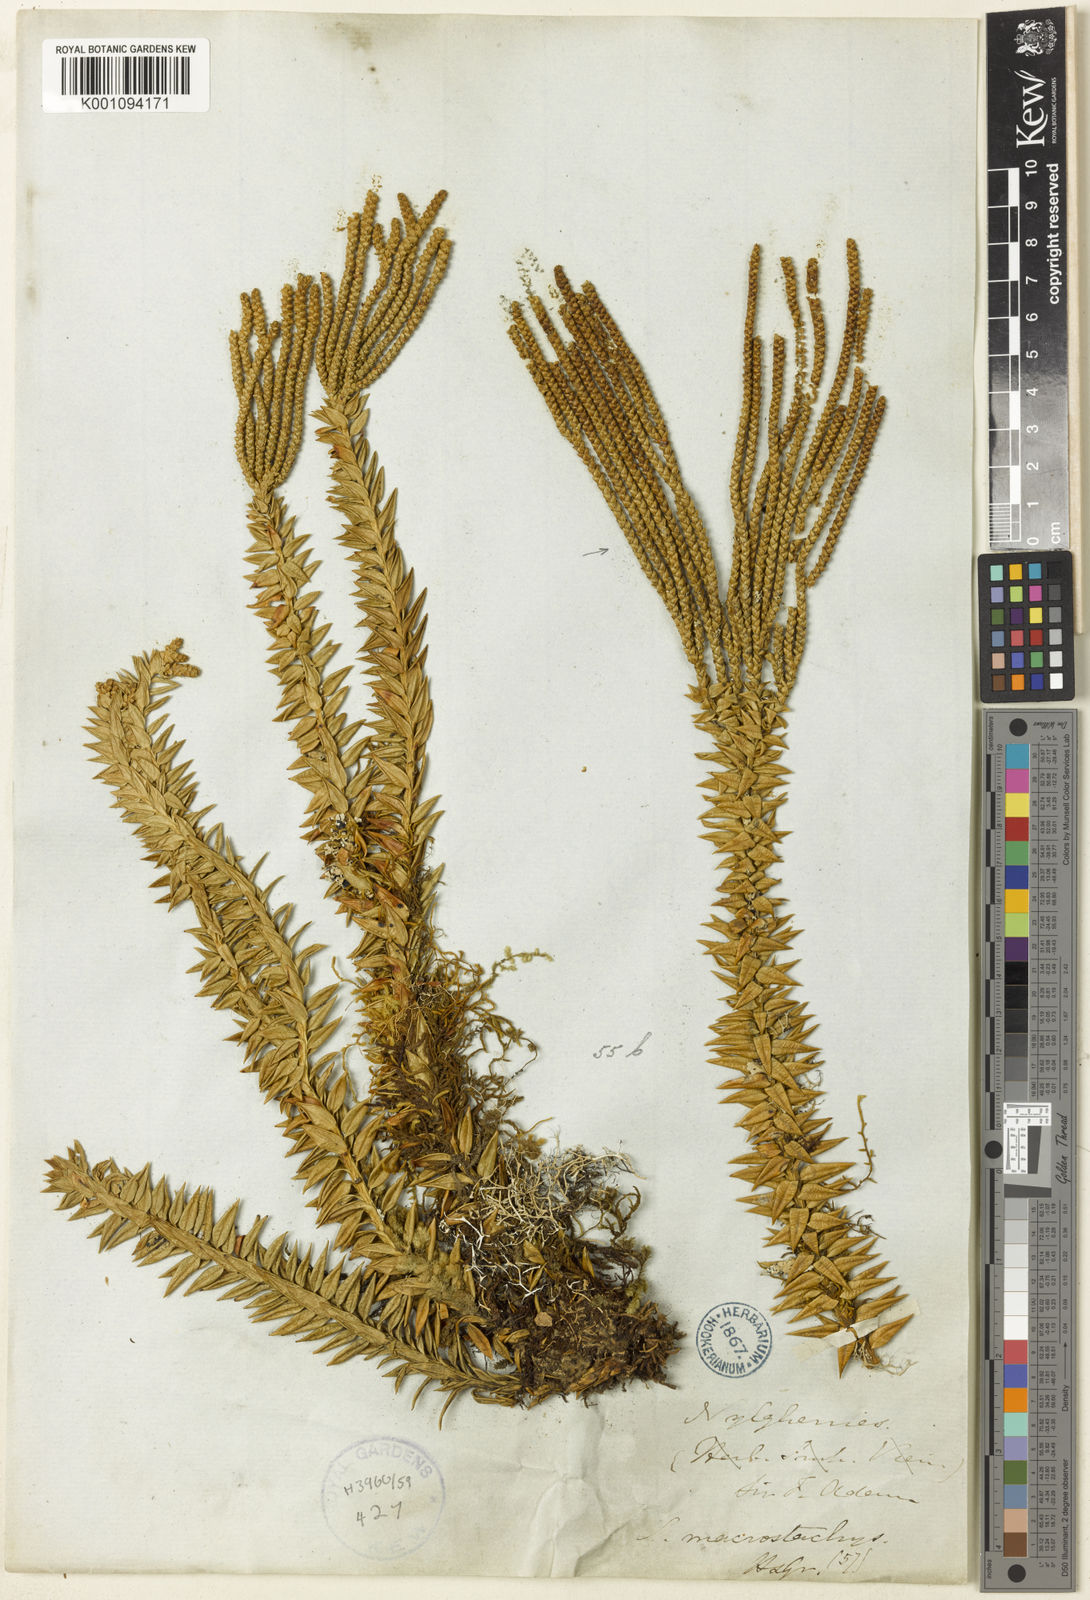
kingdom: Plantae
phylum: Tracheophyta
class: Lycopodiopsida
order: Lycopodiales
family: Lycopodiaceae
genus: Phlegmariurus
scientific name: Phlegmariurus phyllanthus
